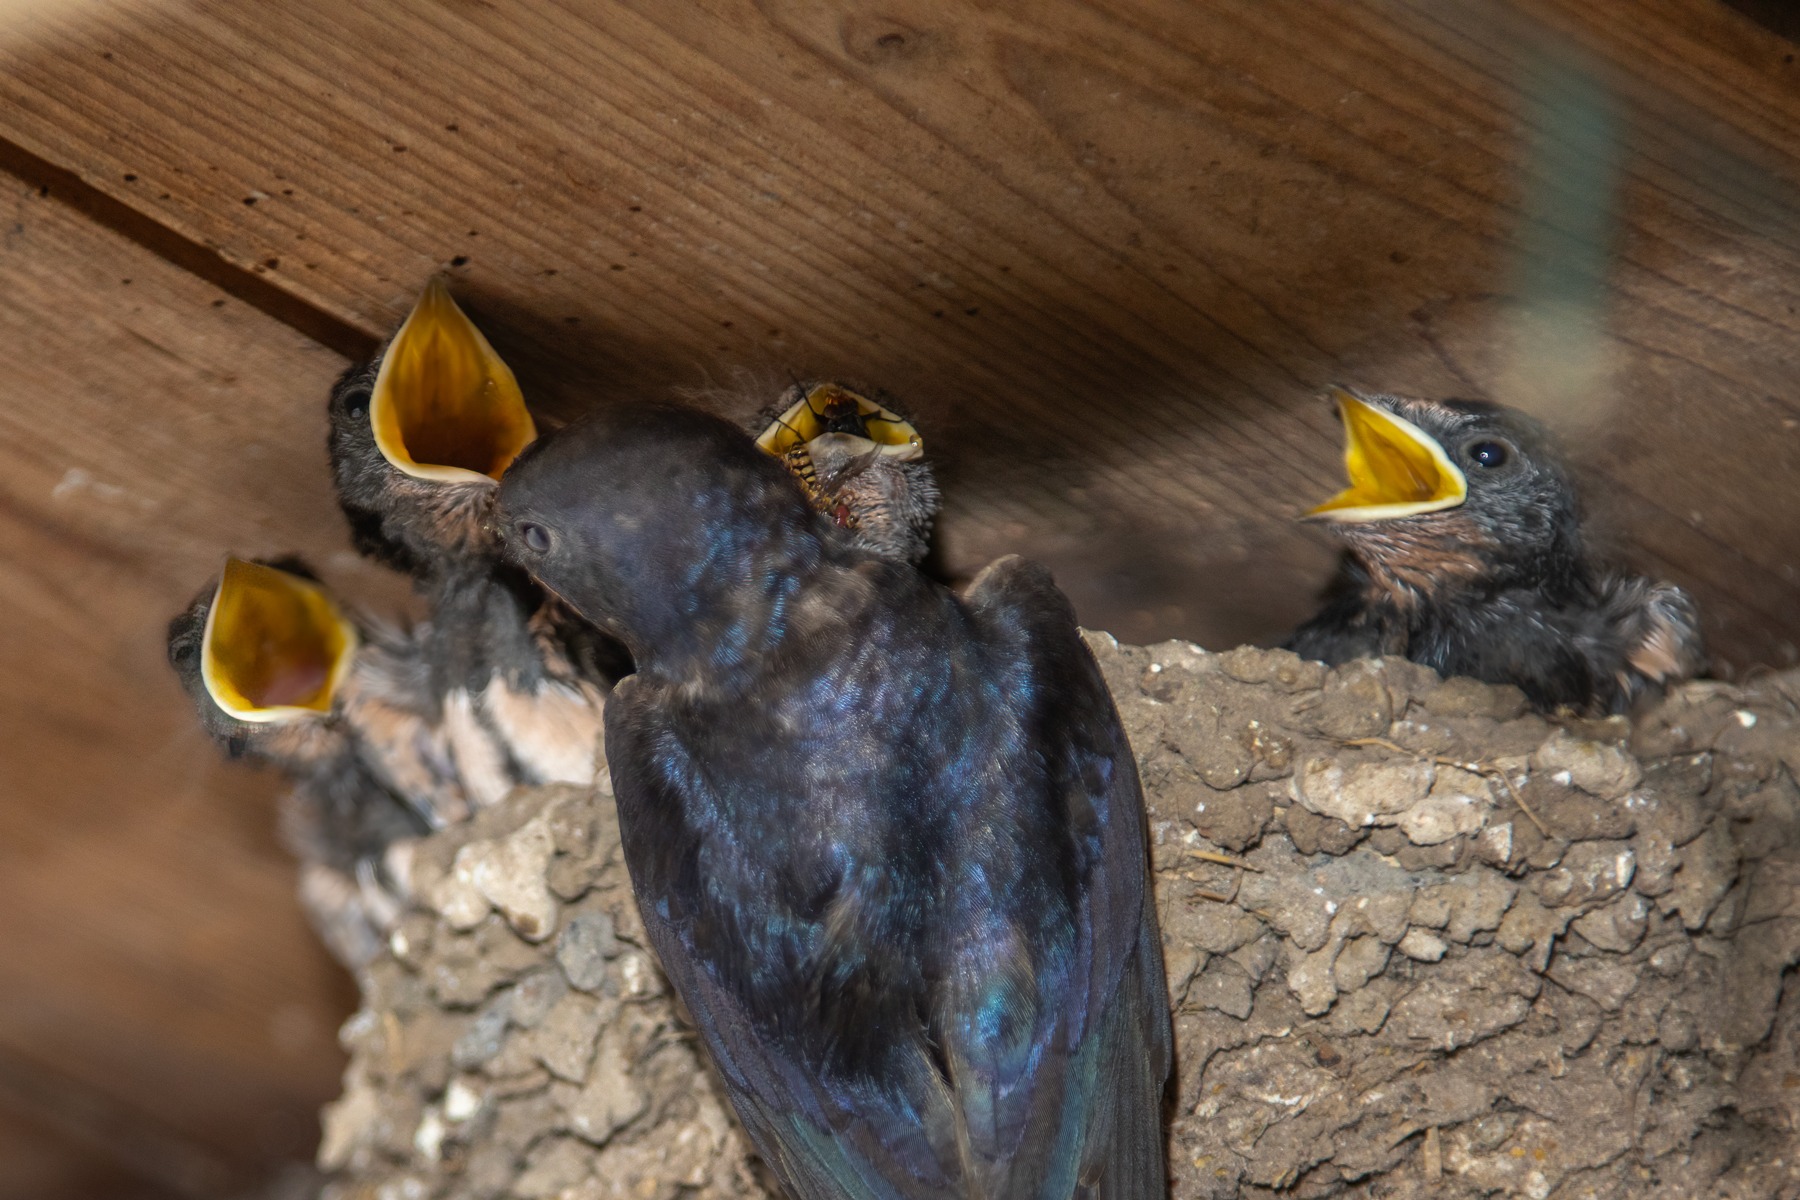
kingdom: Animalia
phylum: Chordata
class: Aves
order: Passeriformes
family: Hirundinidae
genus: Hirundo
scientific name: Hirundo rustica
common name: Landsvale
